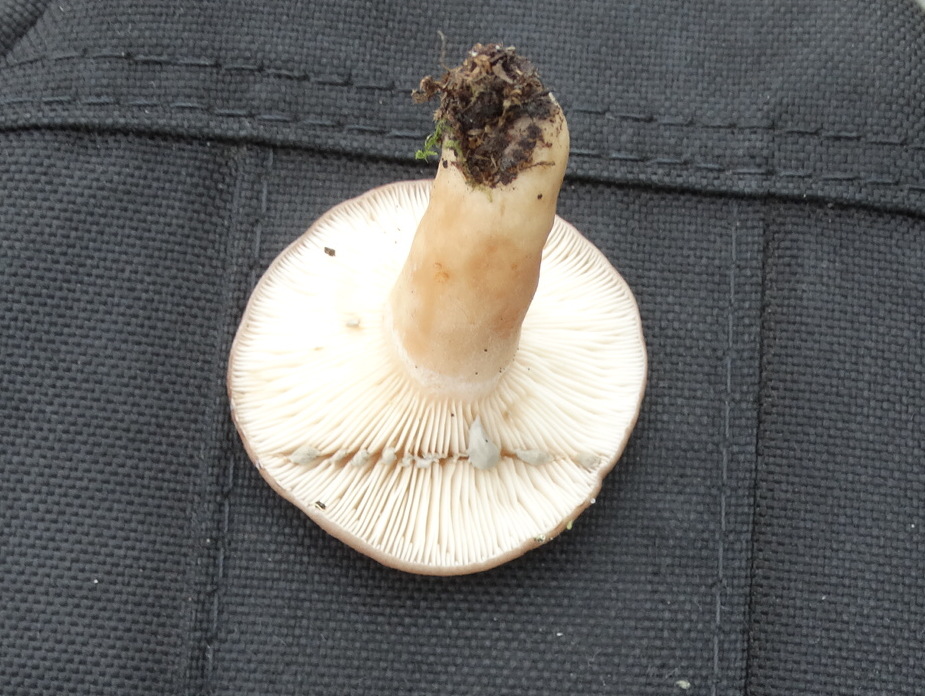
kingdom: Fungi
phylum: Basidiomycota
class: Agaricomycetes
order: Russulales
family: Russulaceae
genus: Lactarius
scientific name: Lactarius vietus
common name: violetgrå mælkehat
